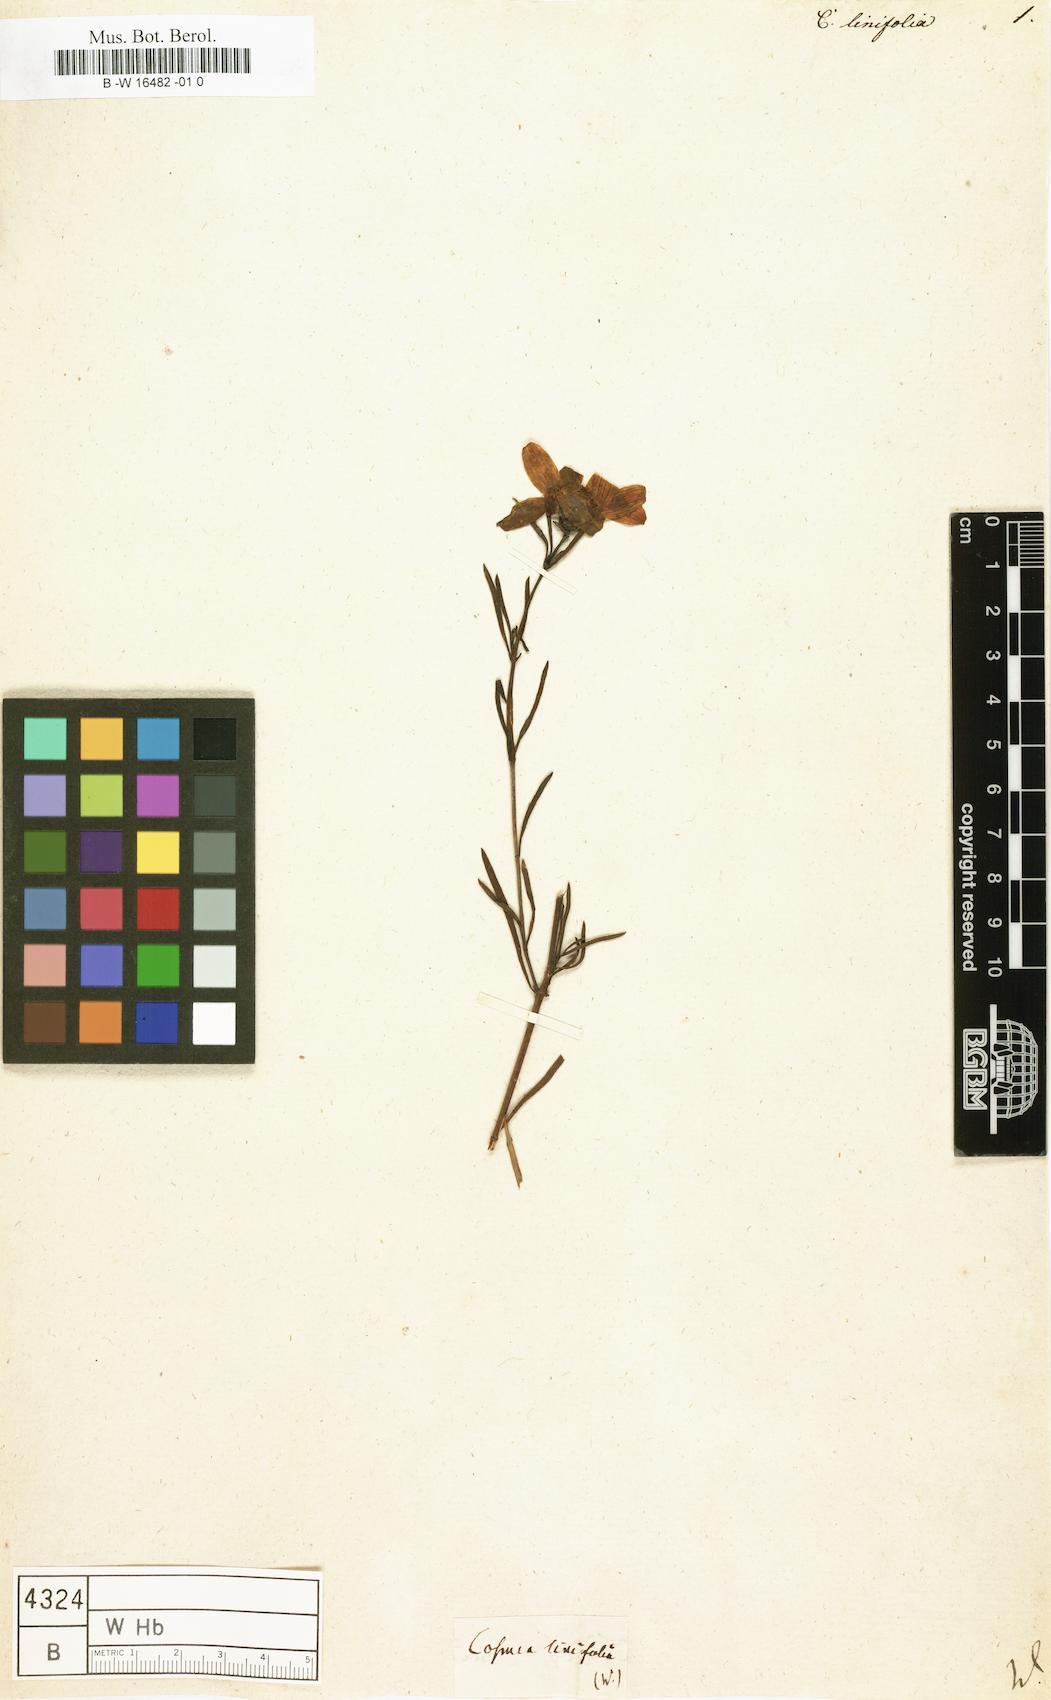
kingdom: Plantae
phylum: Tracheophyta
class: Magnoliopsida
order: Asterales
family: Asteraceae
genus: Cosmos
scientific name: Cosmos
